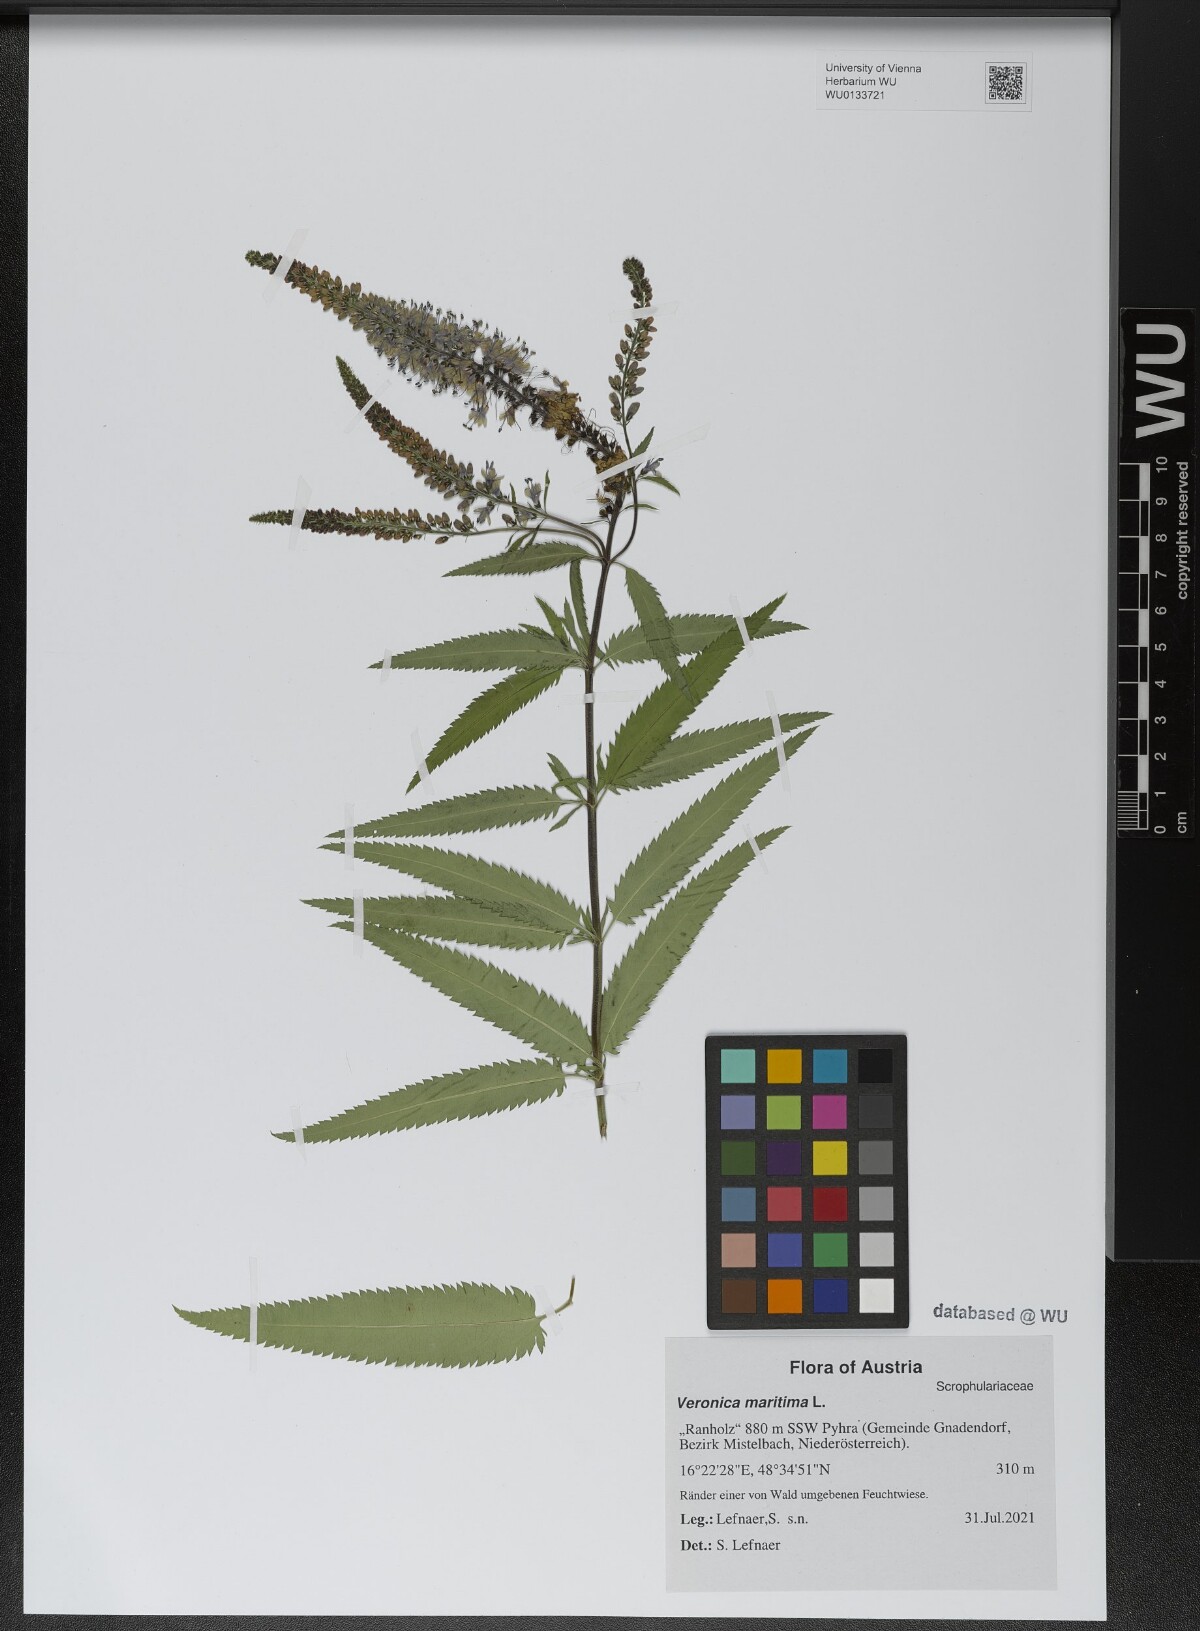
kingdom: Plantae
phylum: Tracheophyta
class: Magnoliopsida
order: Lamiales
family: Plantaginaceae
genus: Veronica
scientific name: Veronica maritima
